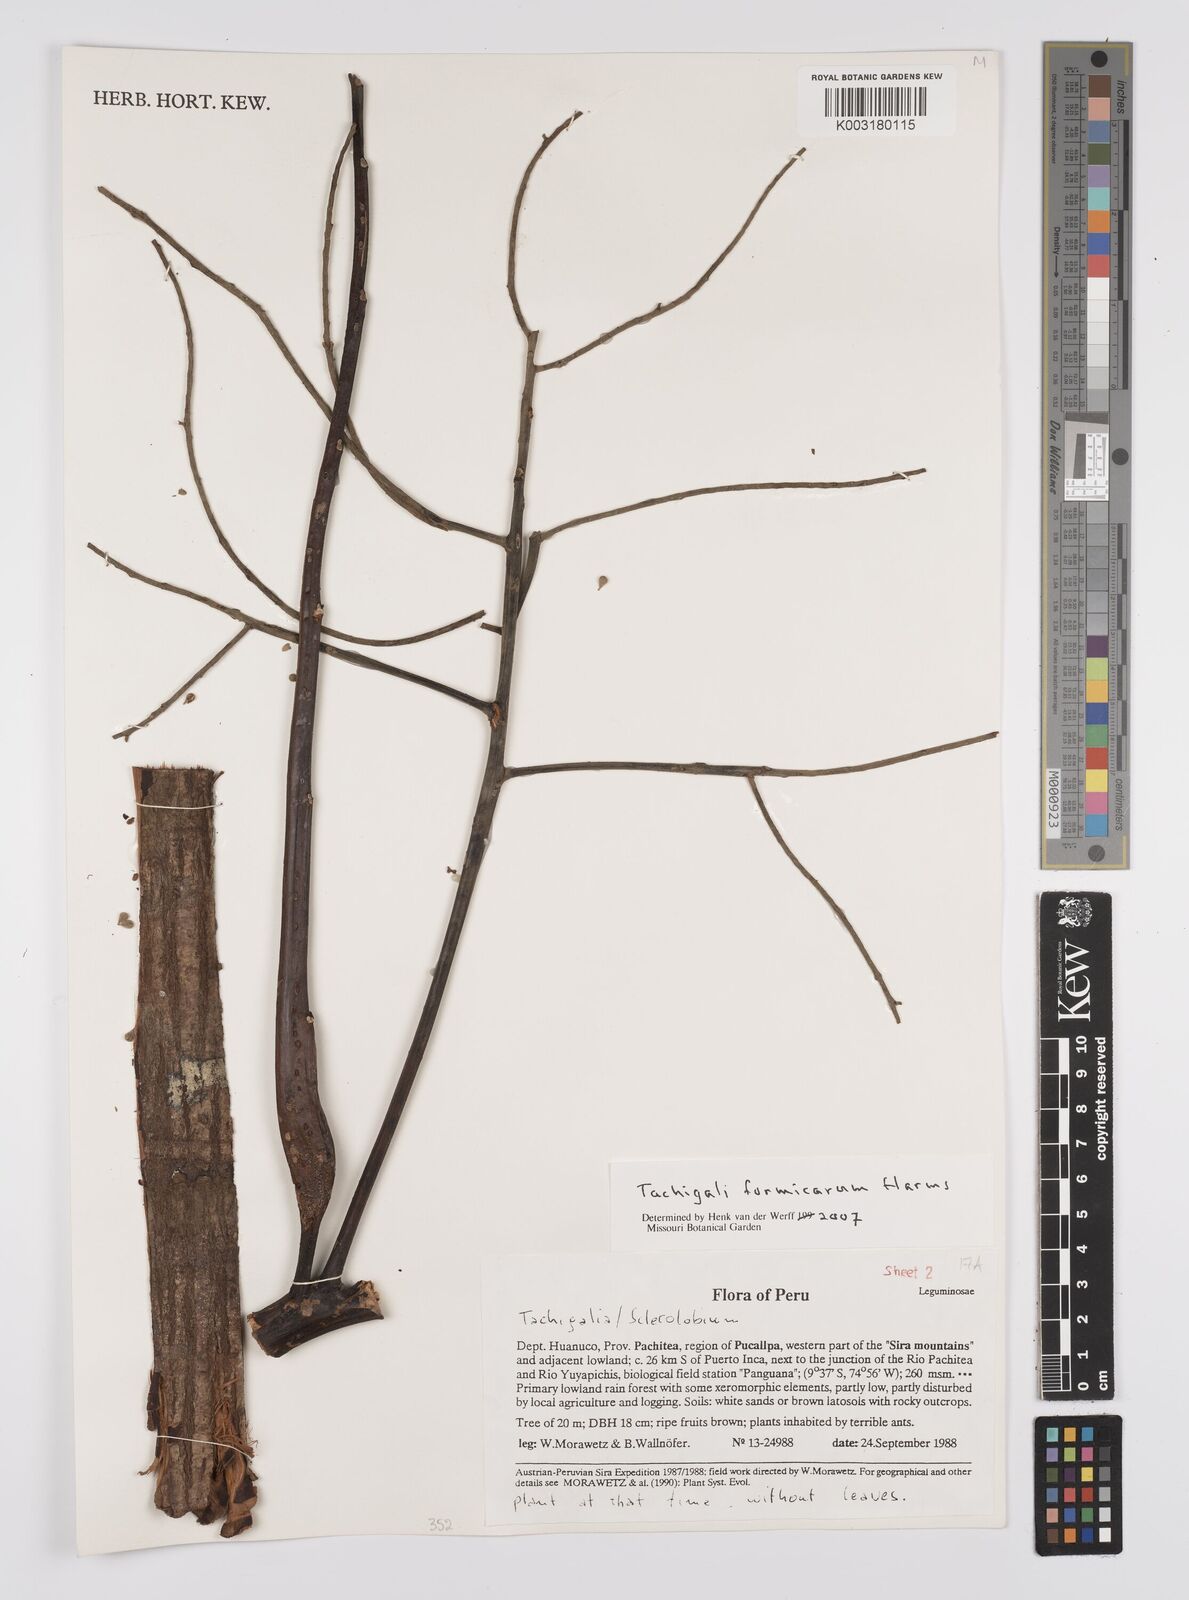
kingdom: Plantae
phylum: Tracheophyta
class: Magnoliopsida
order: Fabales
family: Fabaceae
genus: Tachigali
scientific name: Tachigali formicarum
